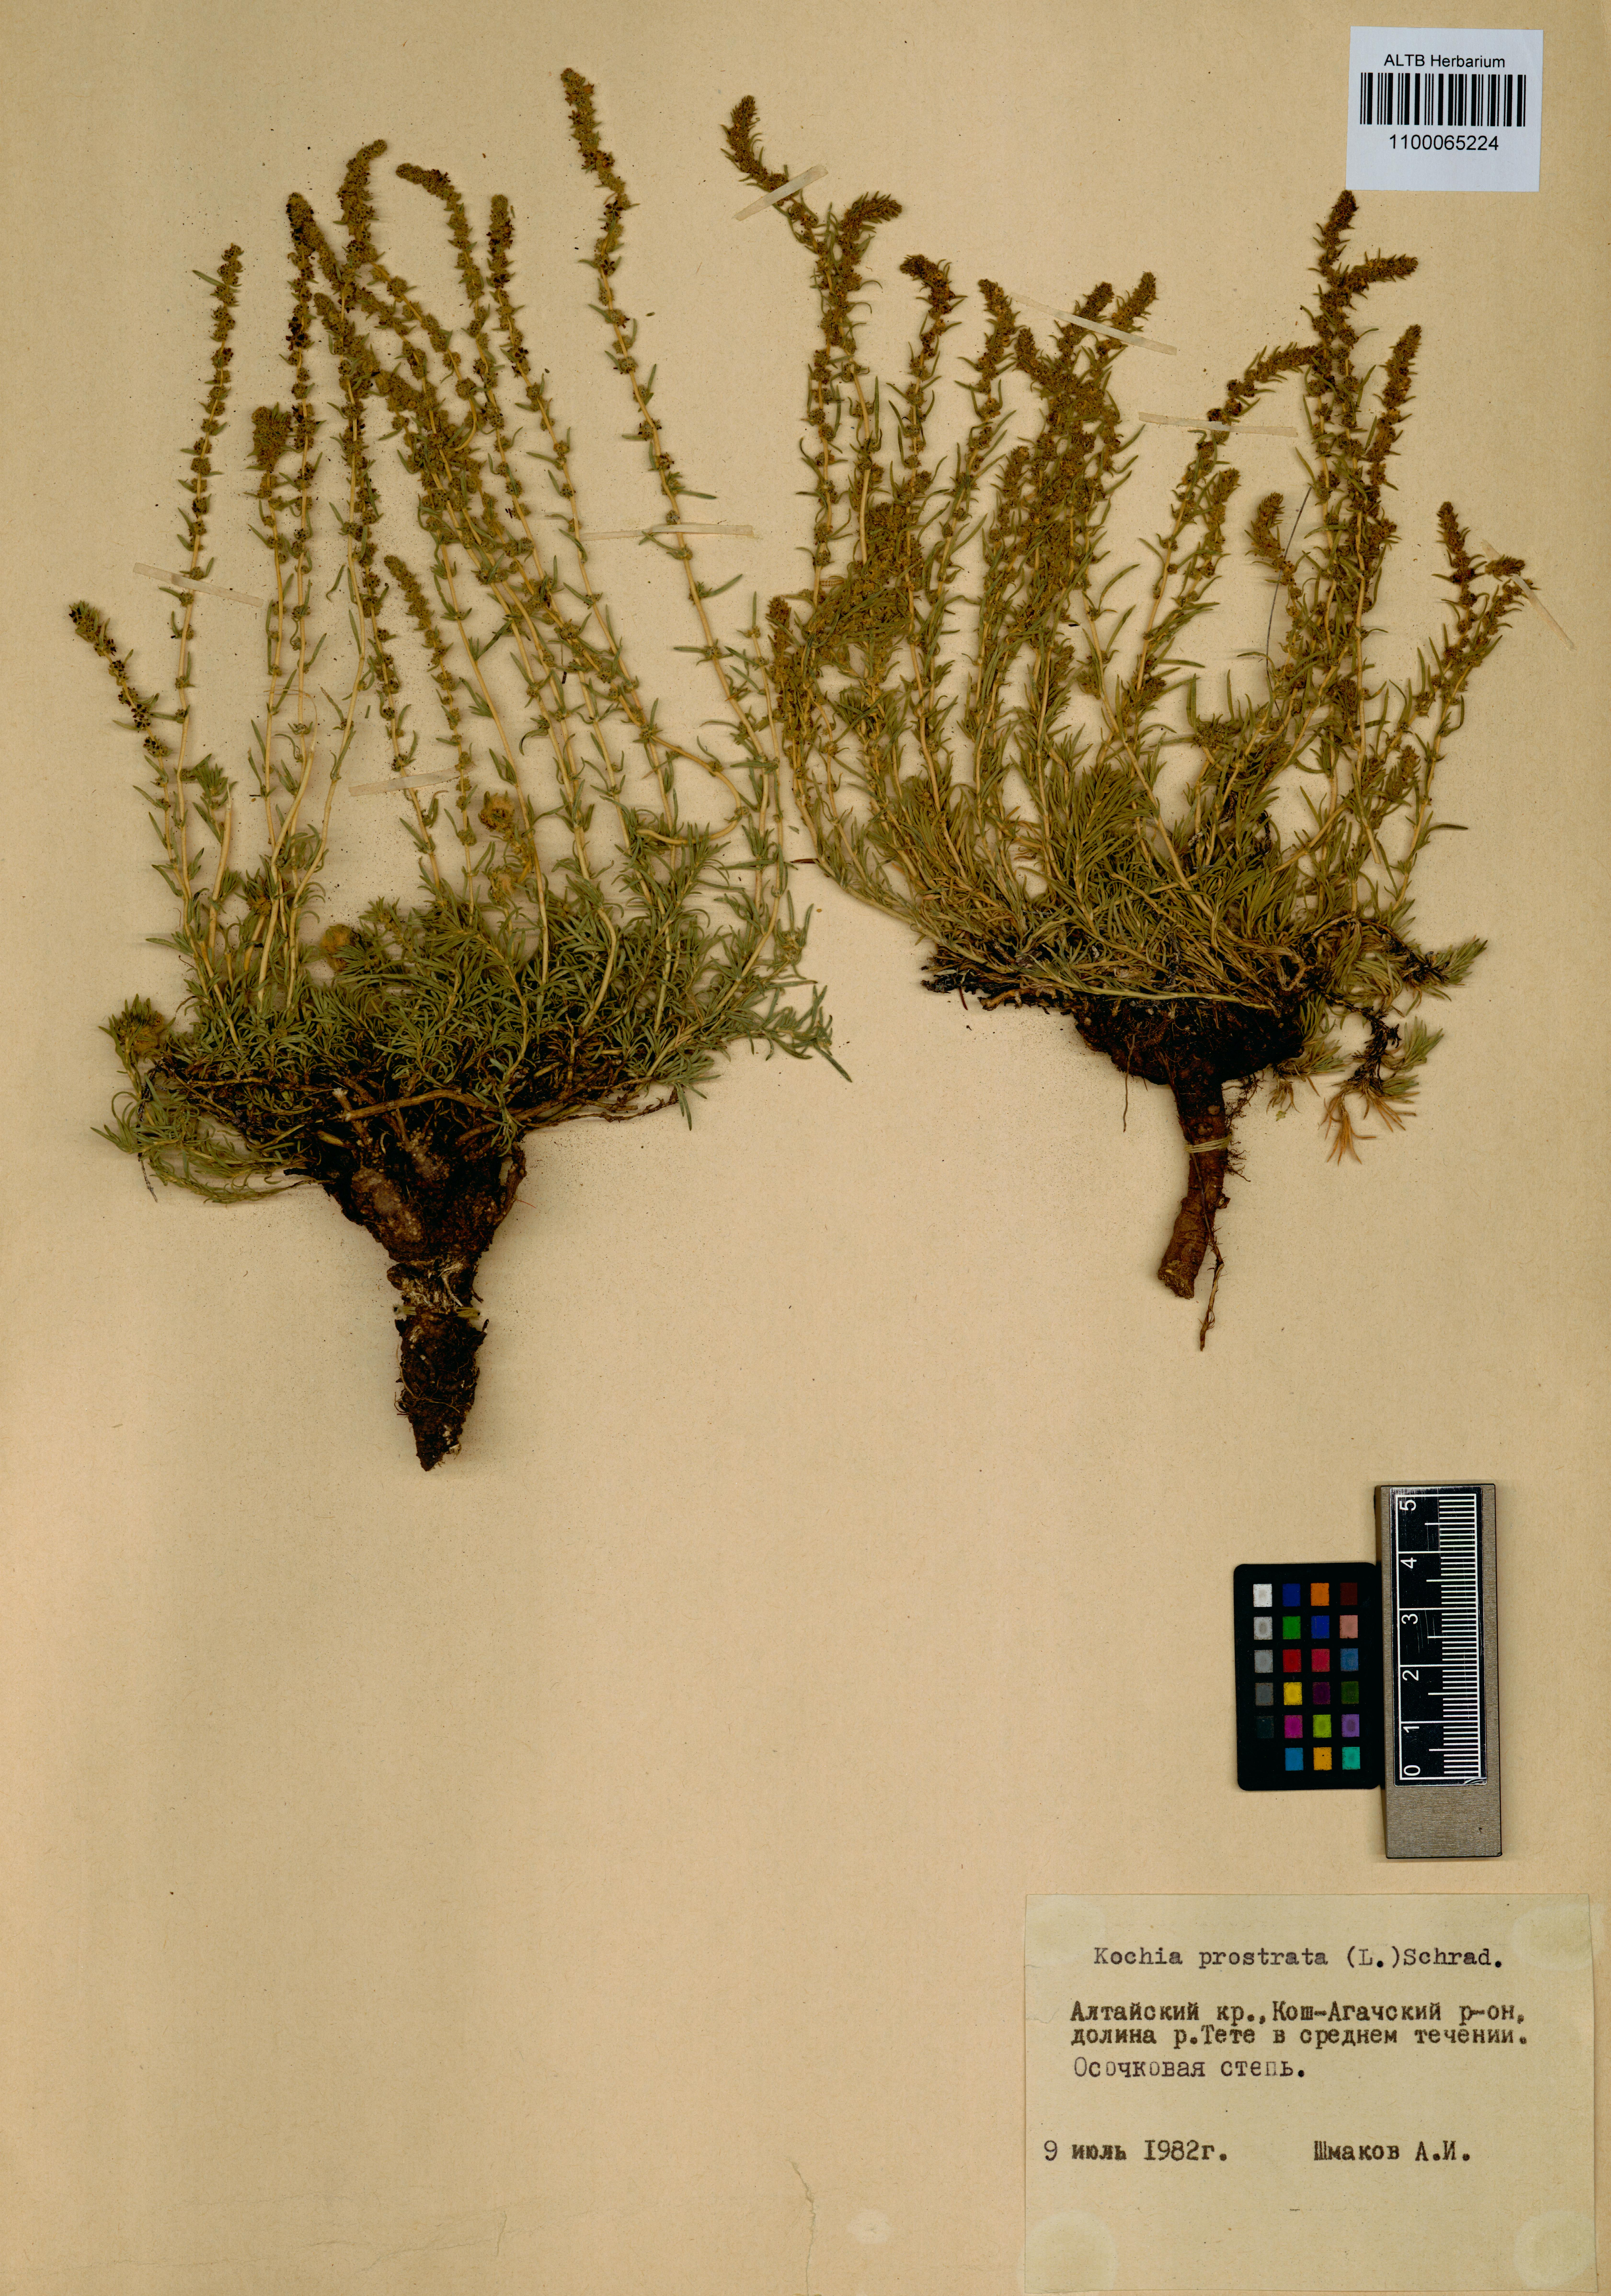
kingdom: Plantae
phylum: Tracheophyta
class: Magnoliopsida
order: Caryophyllales
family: Amaranthaceae
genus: Bassia
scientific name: Bassia prostrata
